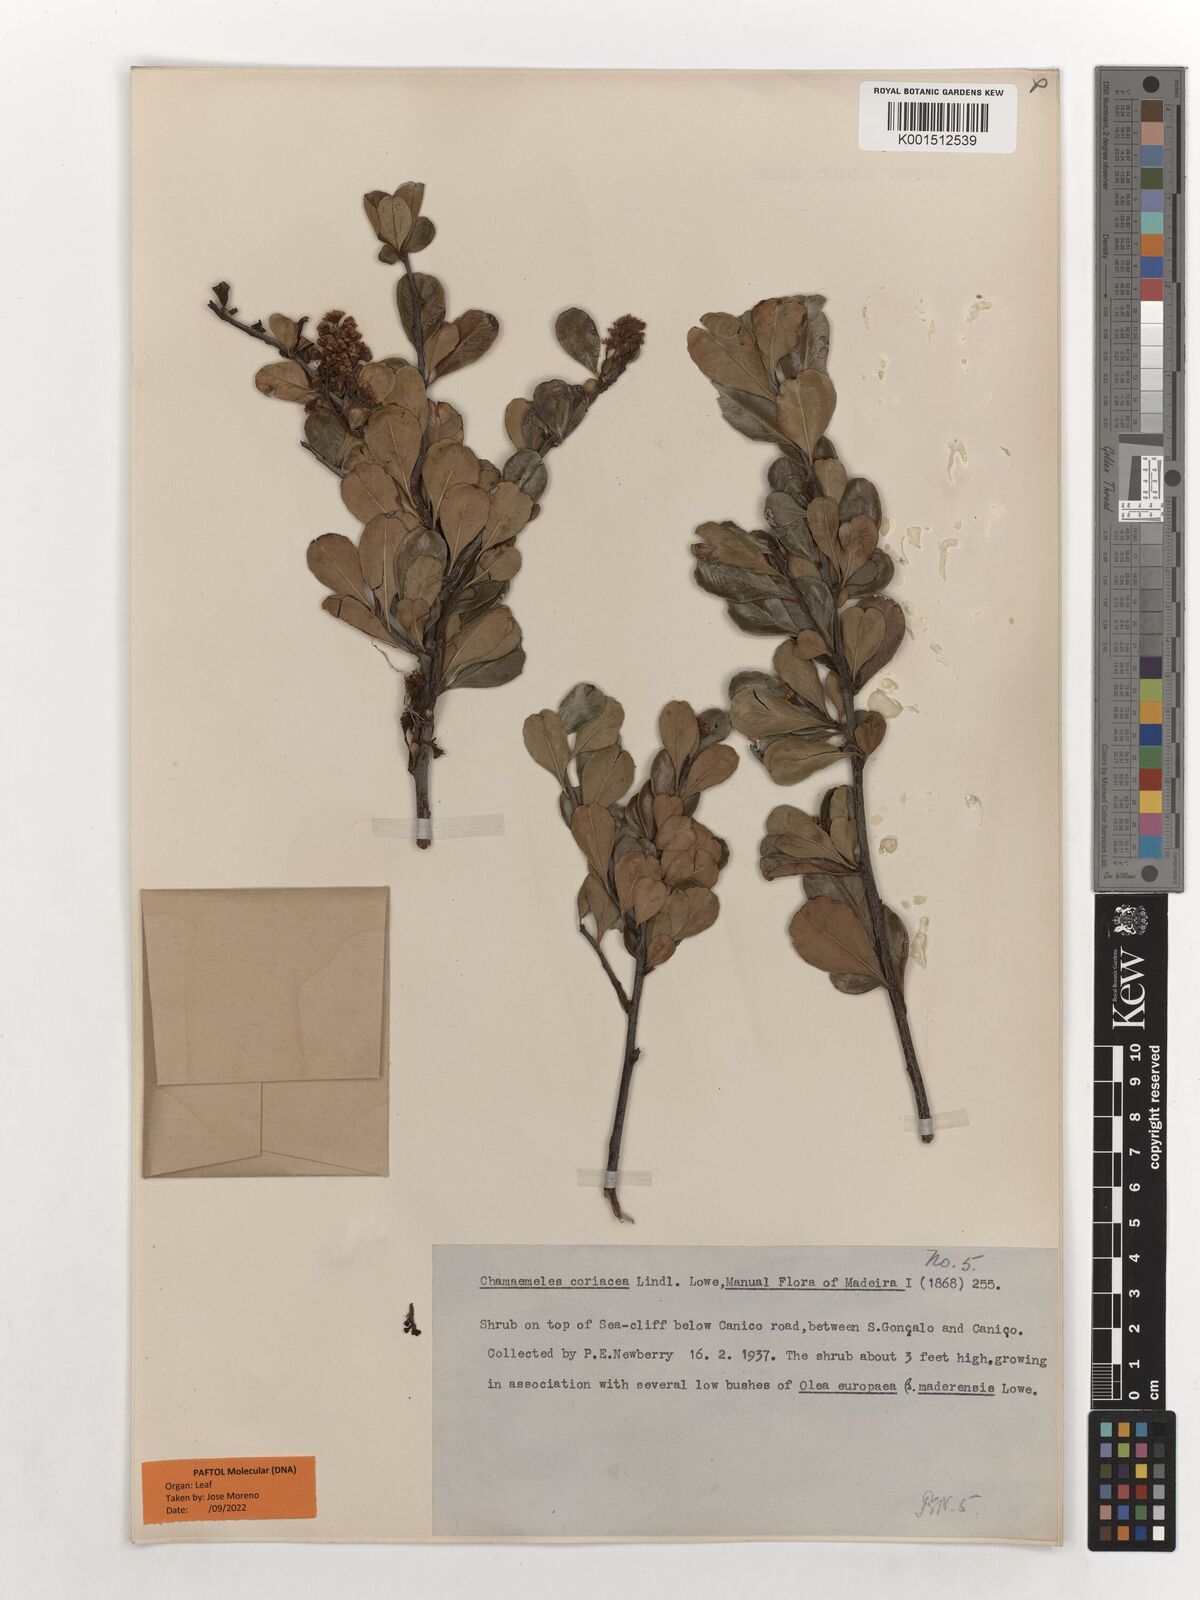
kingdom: Plantae
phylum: Tracheophyta
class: Magnoliopsida
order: Rosales
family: Rosaceae
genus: Chamaemeles
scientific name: Chamaemeles coriacea
